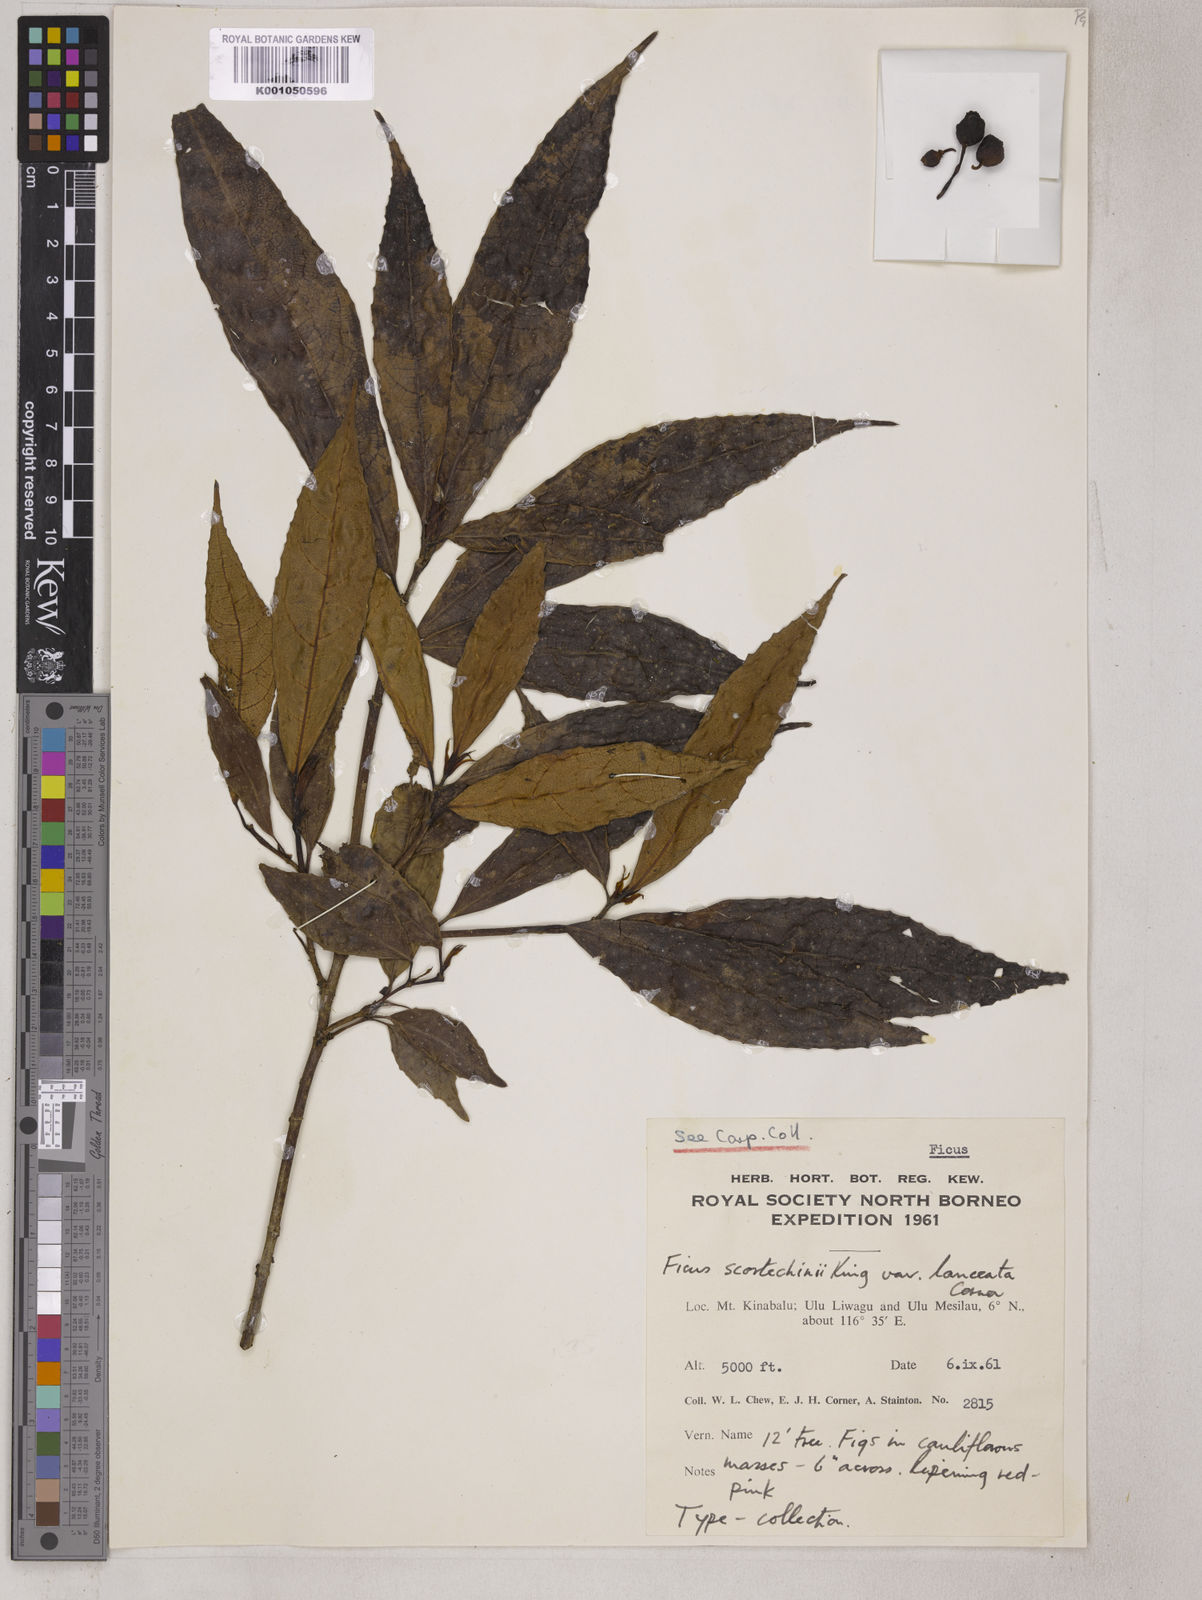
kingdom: Plantae
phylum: Tracheophyta
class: Magnoliopsida
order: Rosales
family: Moraceae
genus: Ficus
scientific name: Ficus ribes
